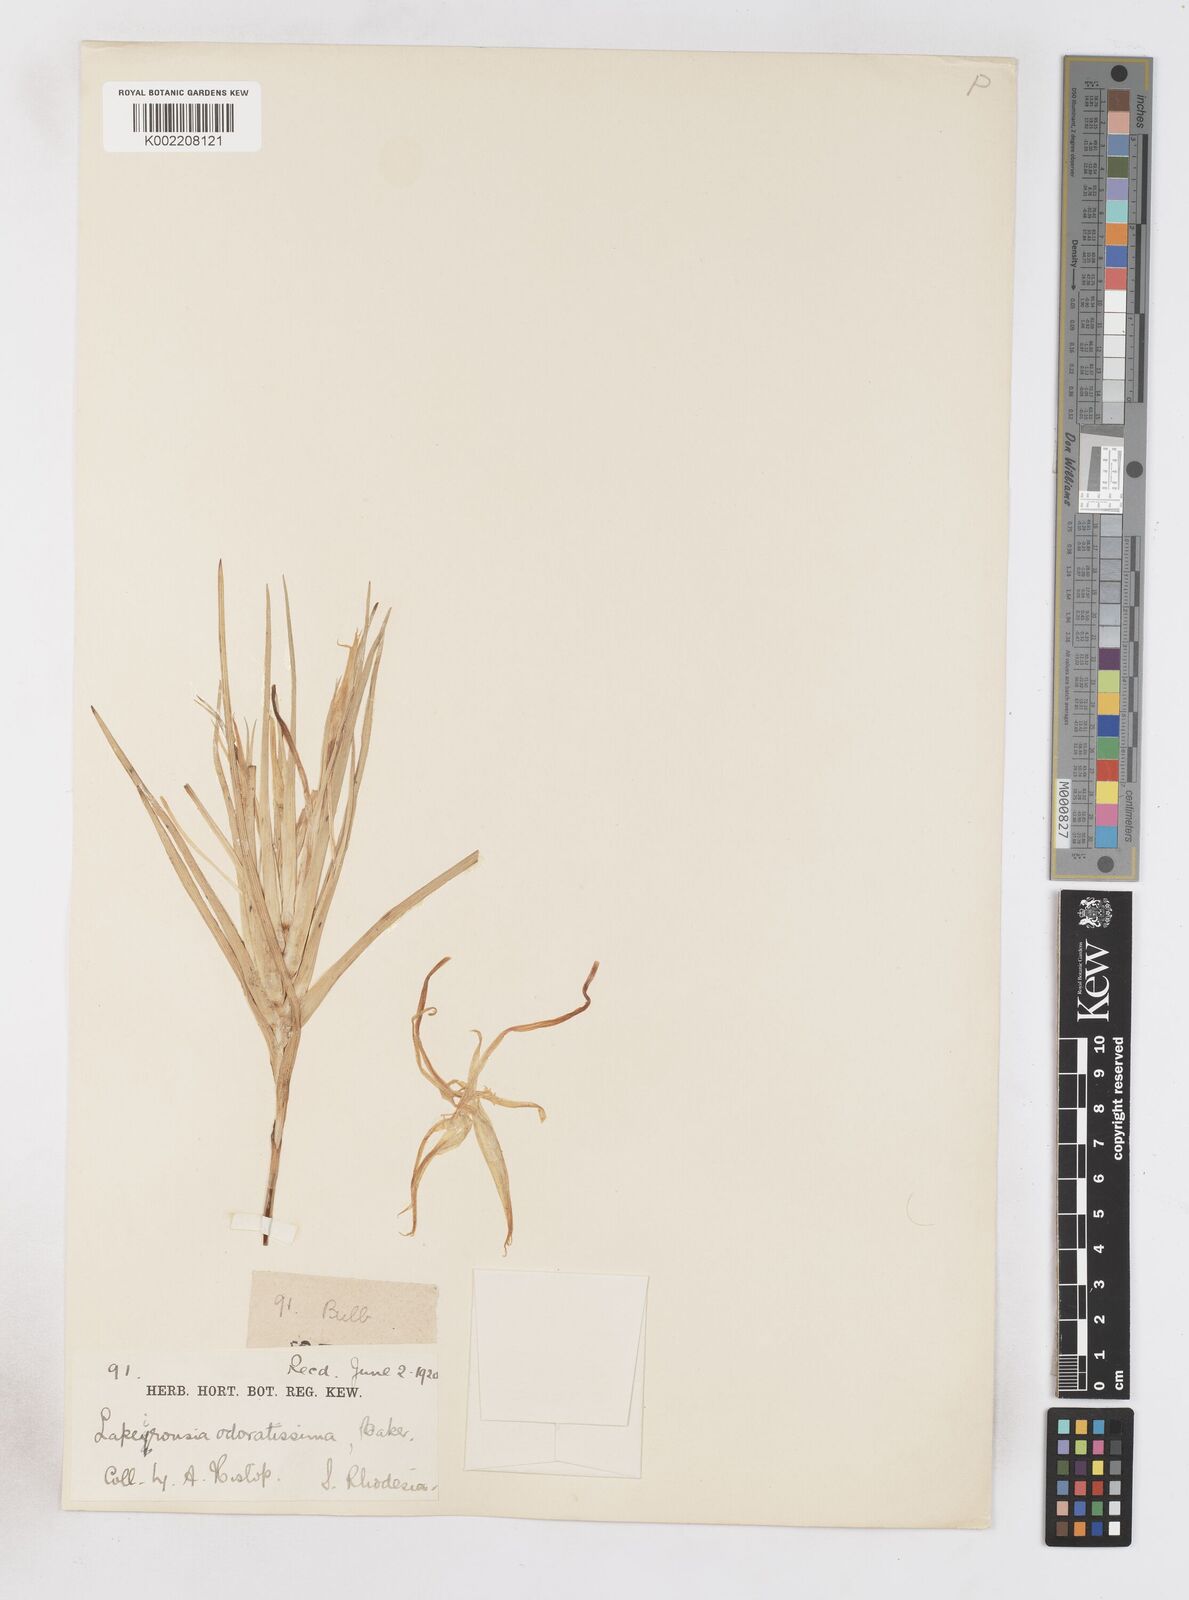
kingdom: Plantae
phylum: Tracheophyta
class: Liliopsida
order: Asparagales
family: Iridaceae
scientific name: Iridaceae
